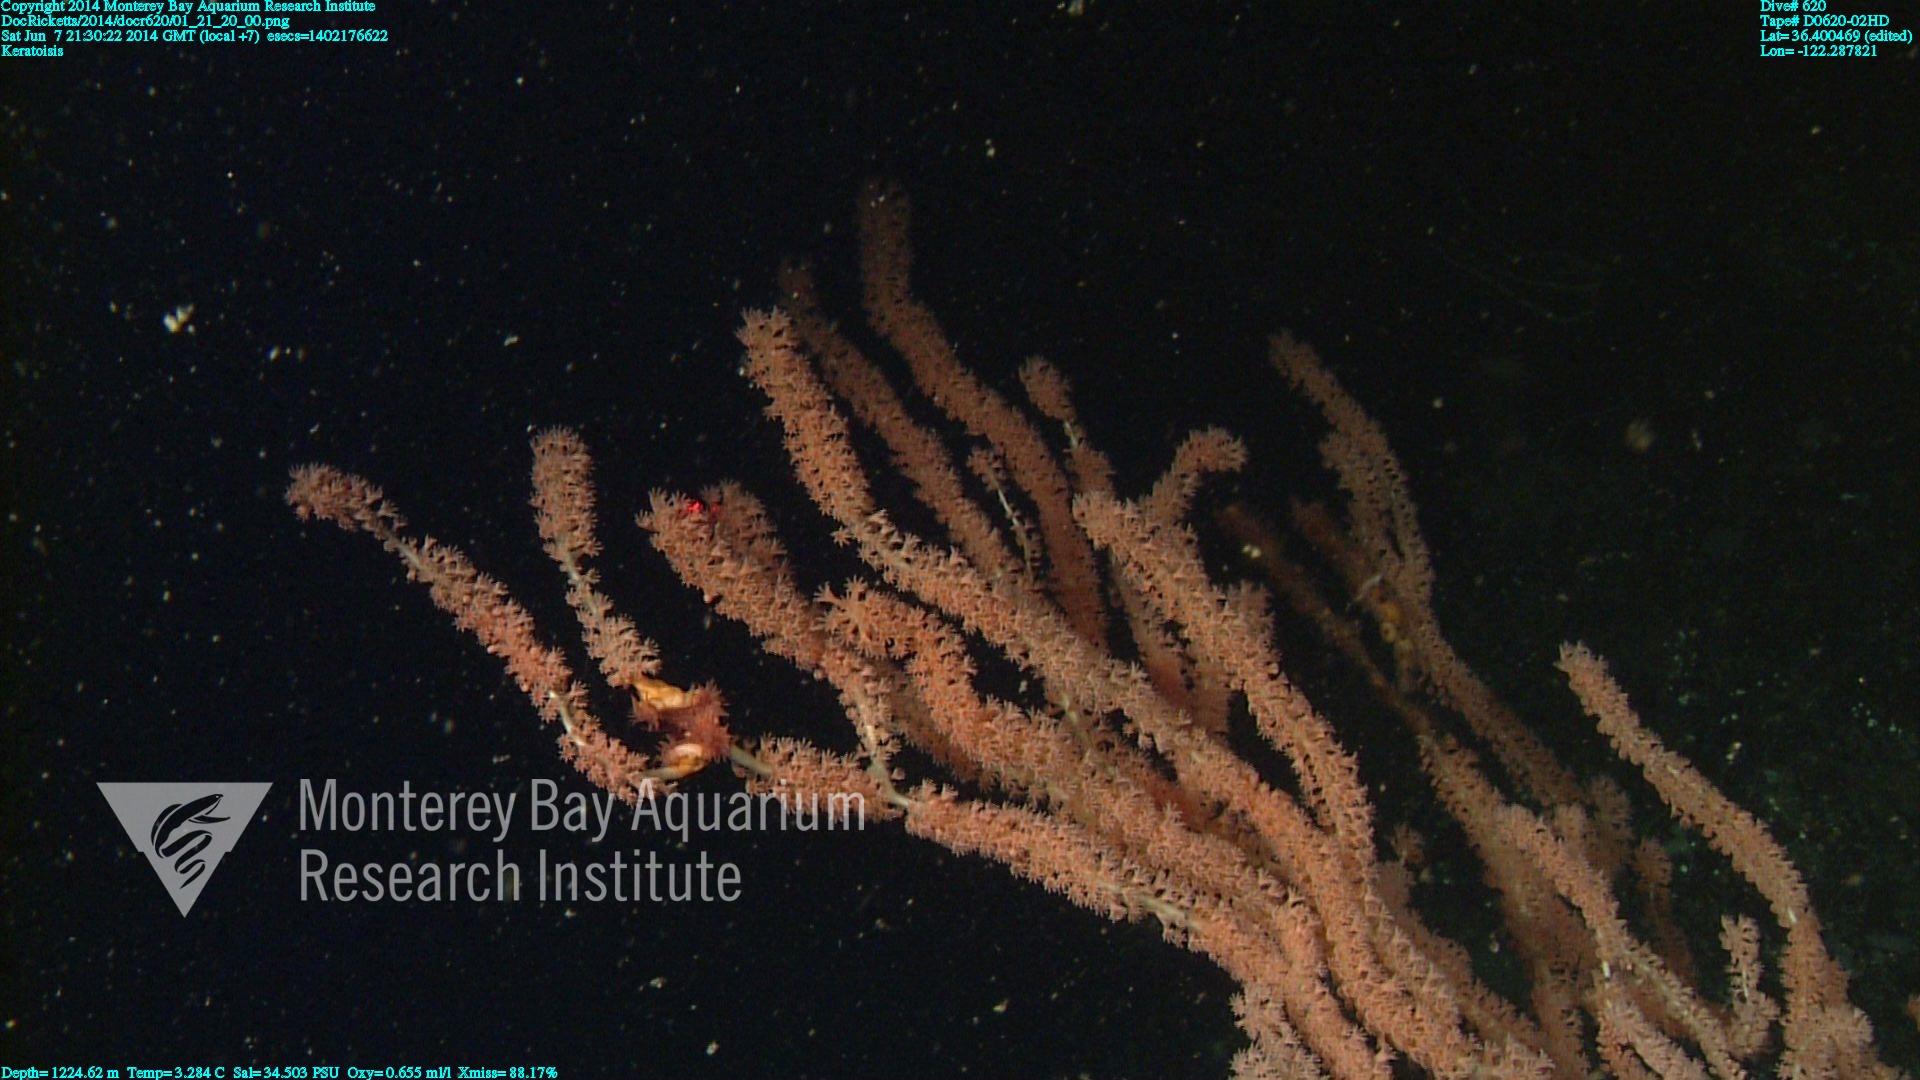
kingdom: Animalia
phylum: Cnidaria
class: Anthozoa
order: Scleralcyonacea
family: Keratoisididae
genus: Keratoisis
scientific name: Keratoisis
